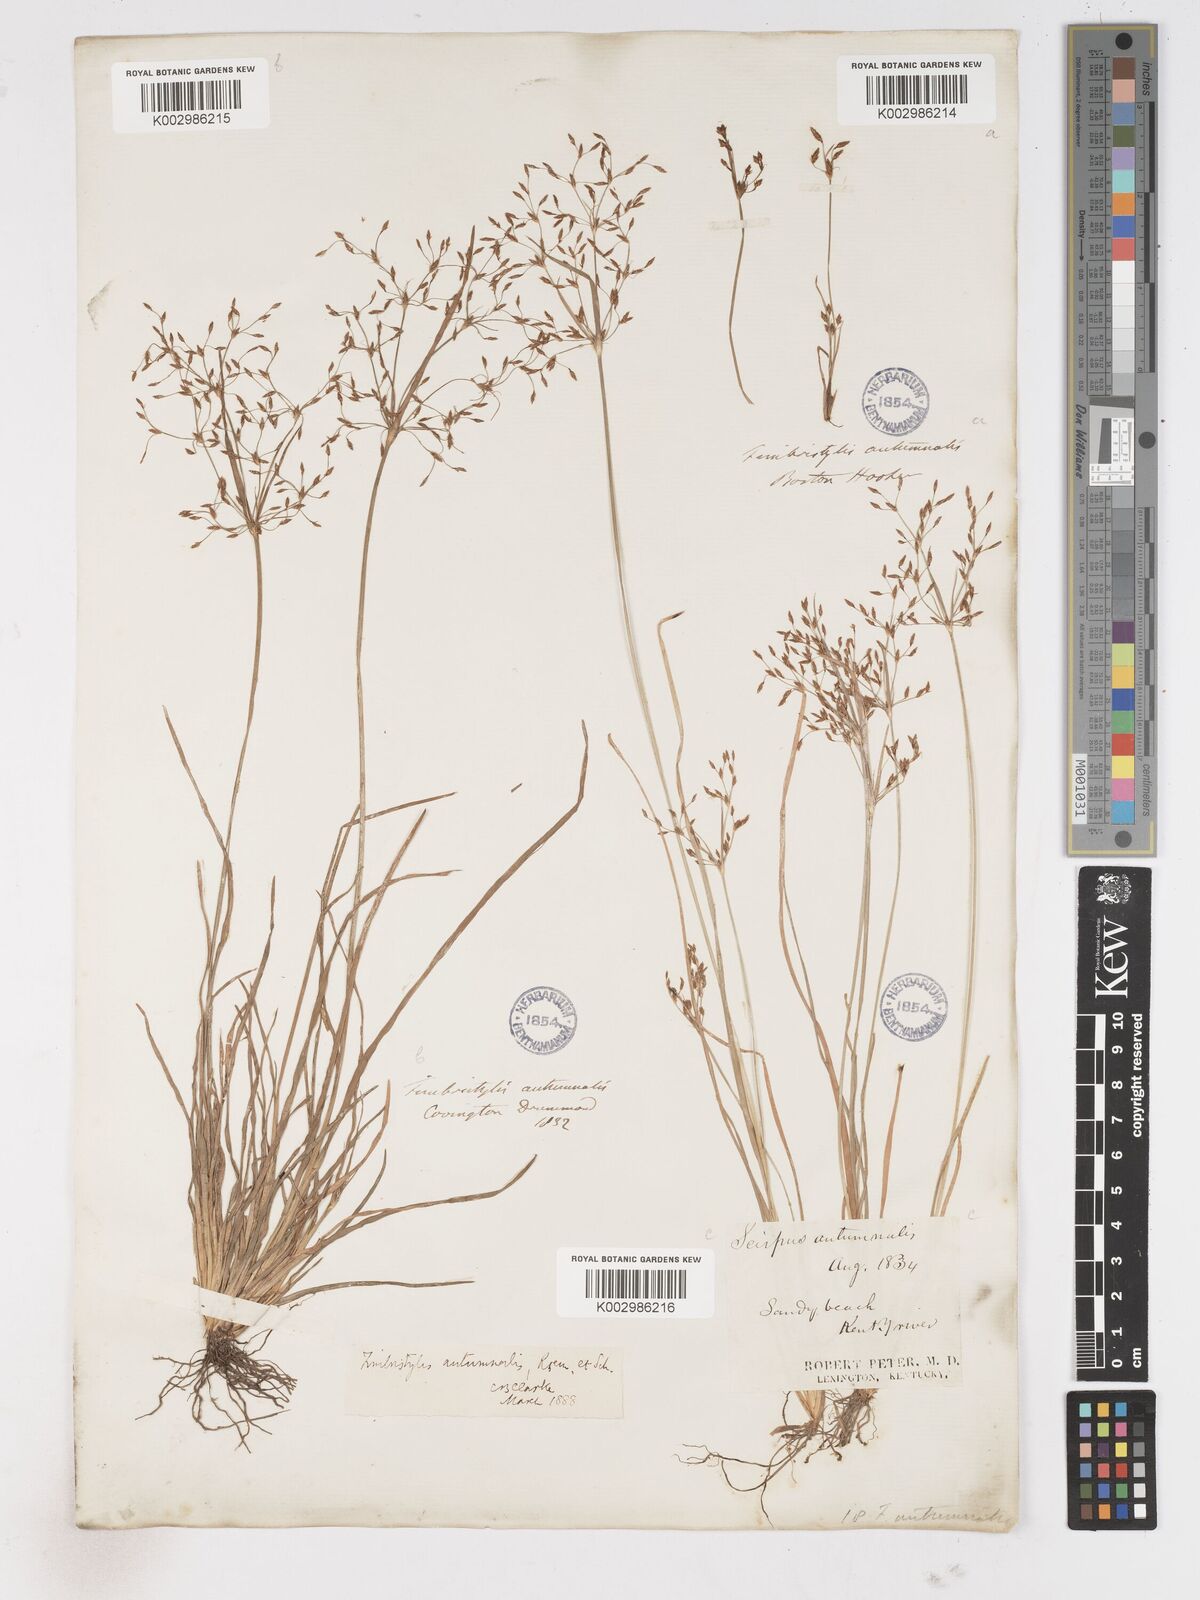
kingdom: Plantae
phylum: Tracheophyta
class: Liliopsida
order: Poales
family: Cyperaceae
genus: Fimbristylis
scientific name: Fimbristylis autumnalis
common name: Slender fimbristylis
